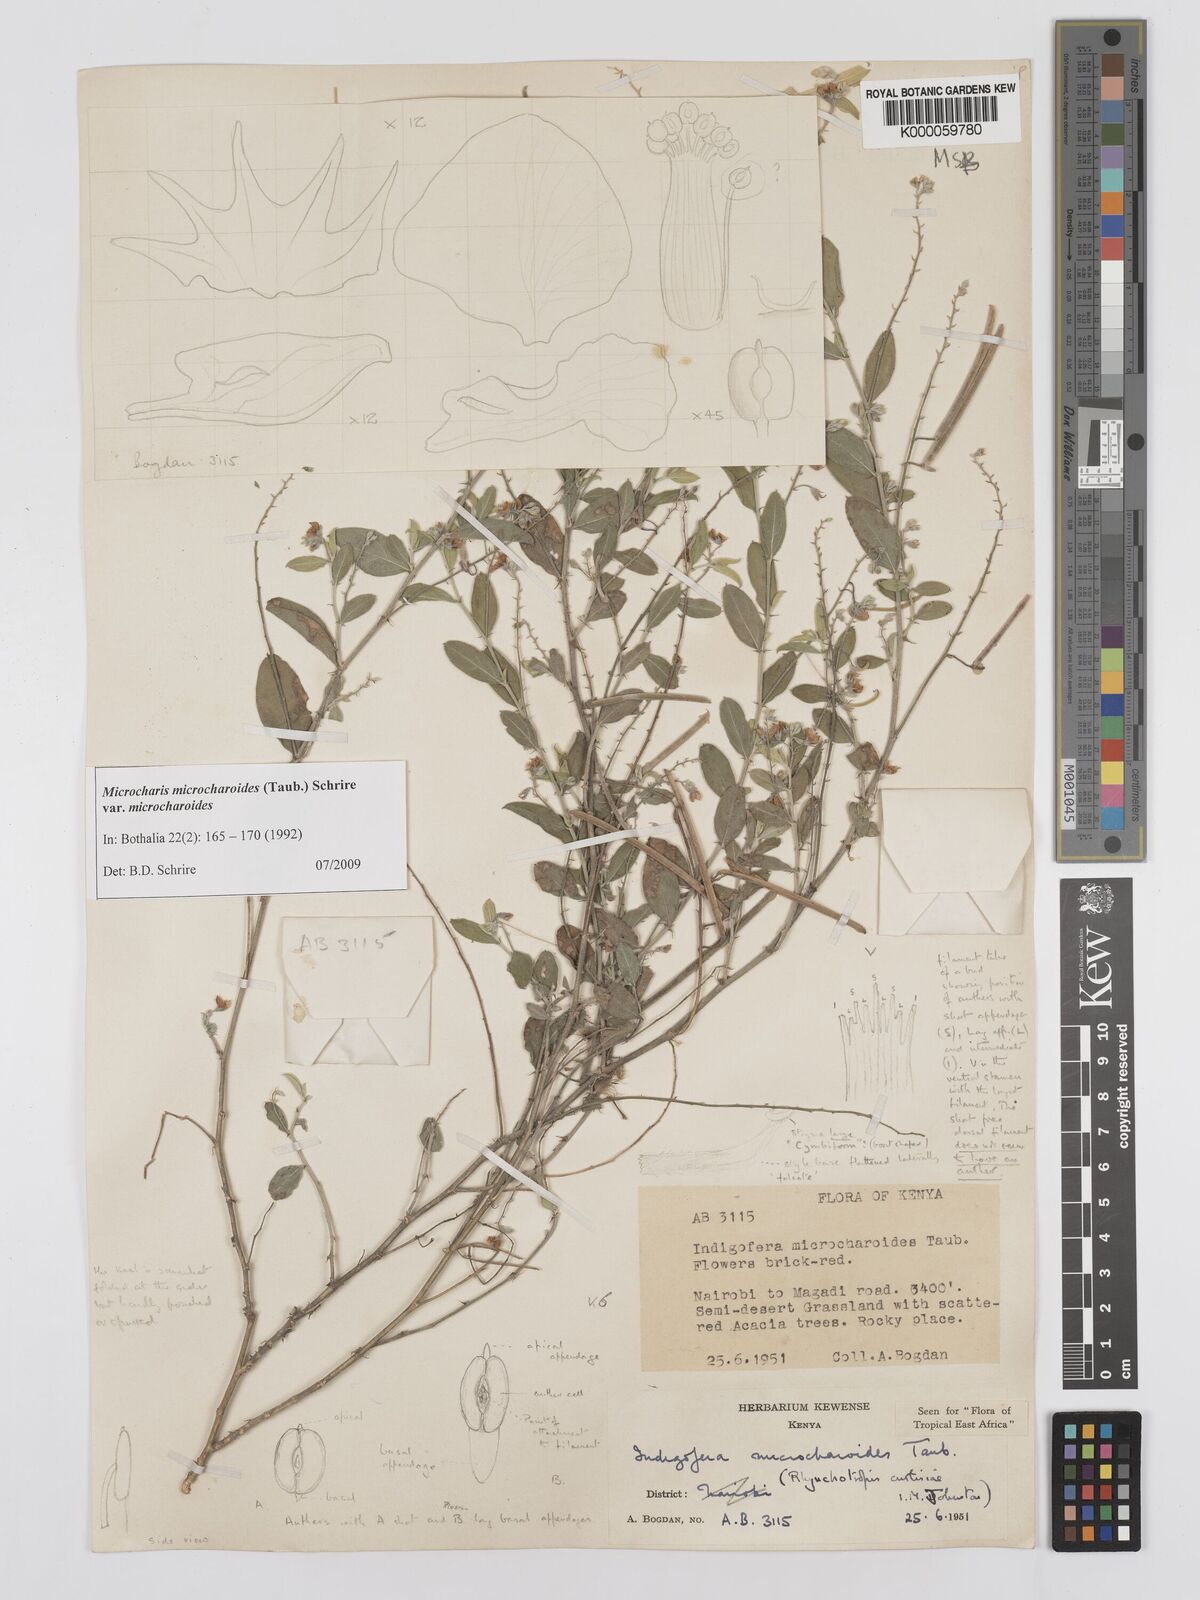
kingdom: Plantae
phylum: Tracheophyta
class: Magnoliopsida
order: Fabales
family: Fabaceae
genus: Microcharis
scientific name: Microcharis microcharoides
